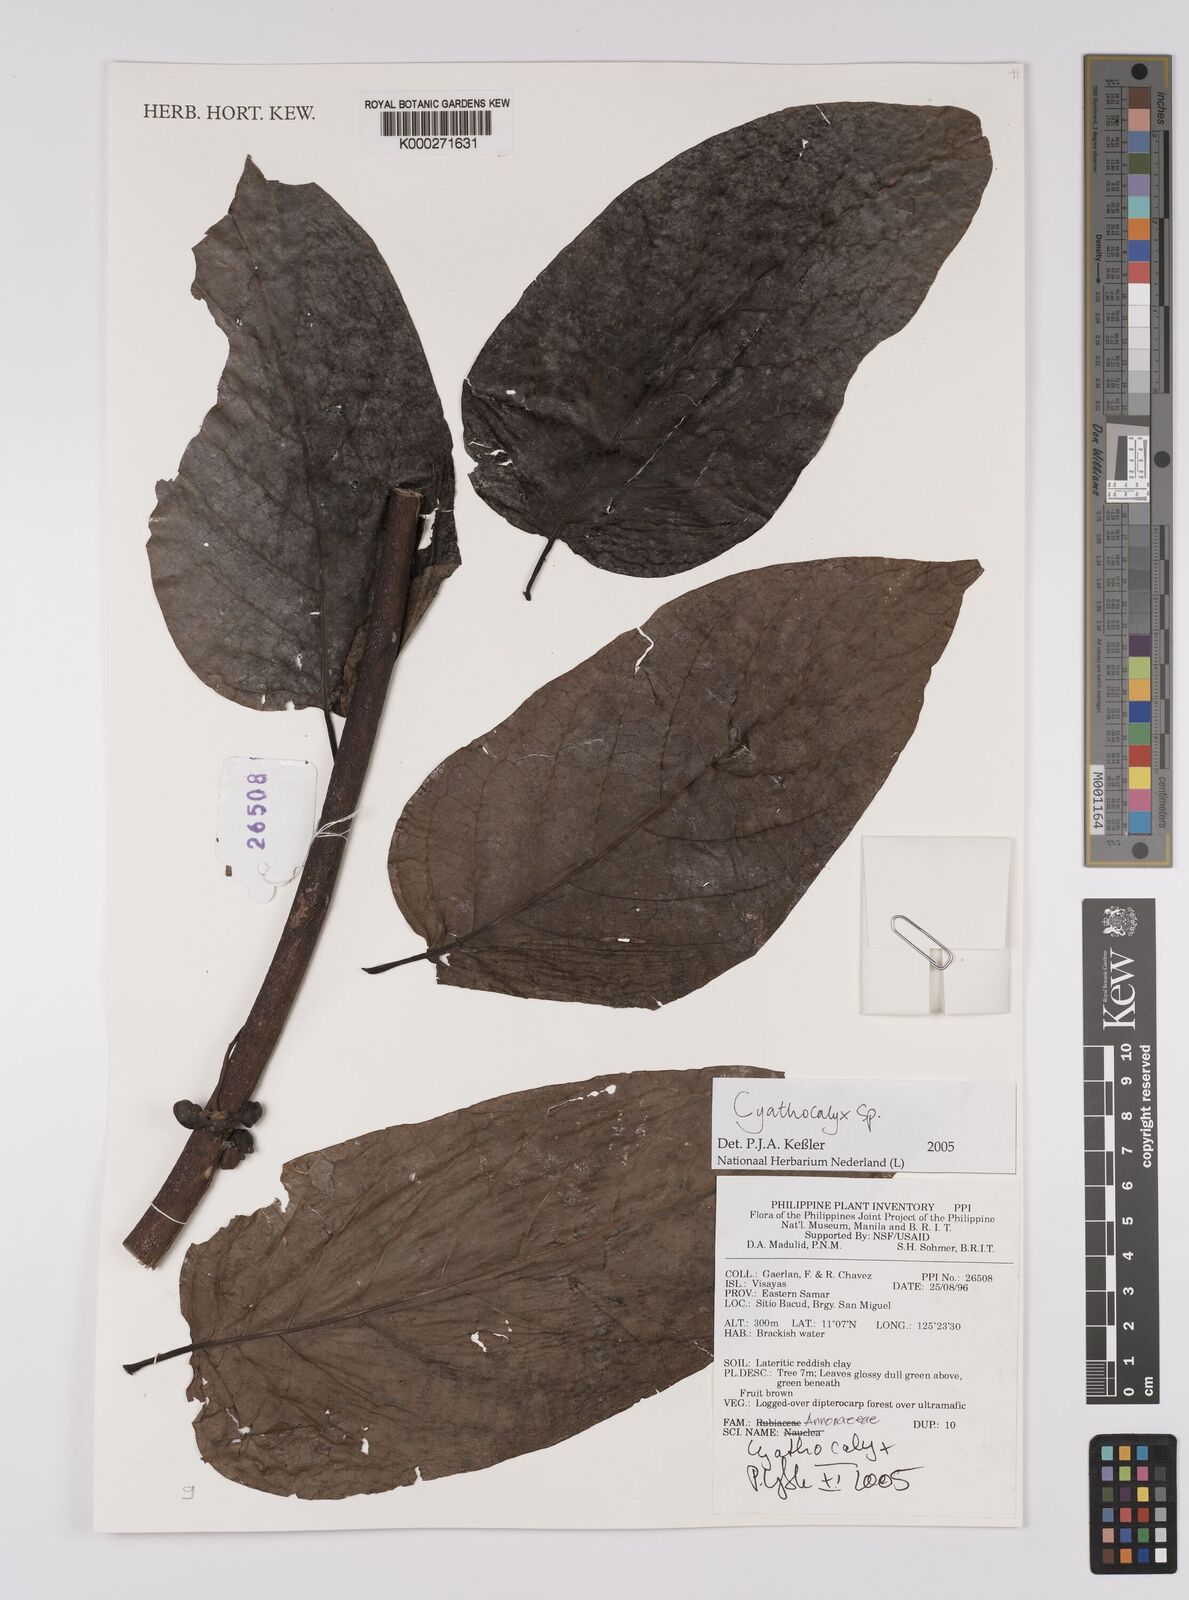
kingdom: Plantae
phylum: Tracheophyta
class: Magnoliopsida
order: Magnoliales
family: Annonaceae
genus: Cyathocalyx
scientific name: Cyathocalyx
